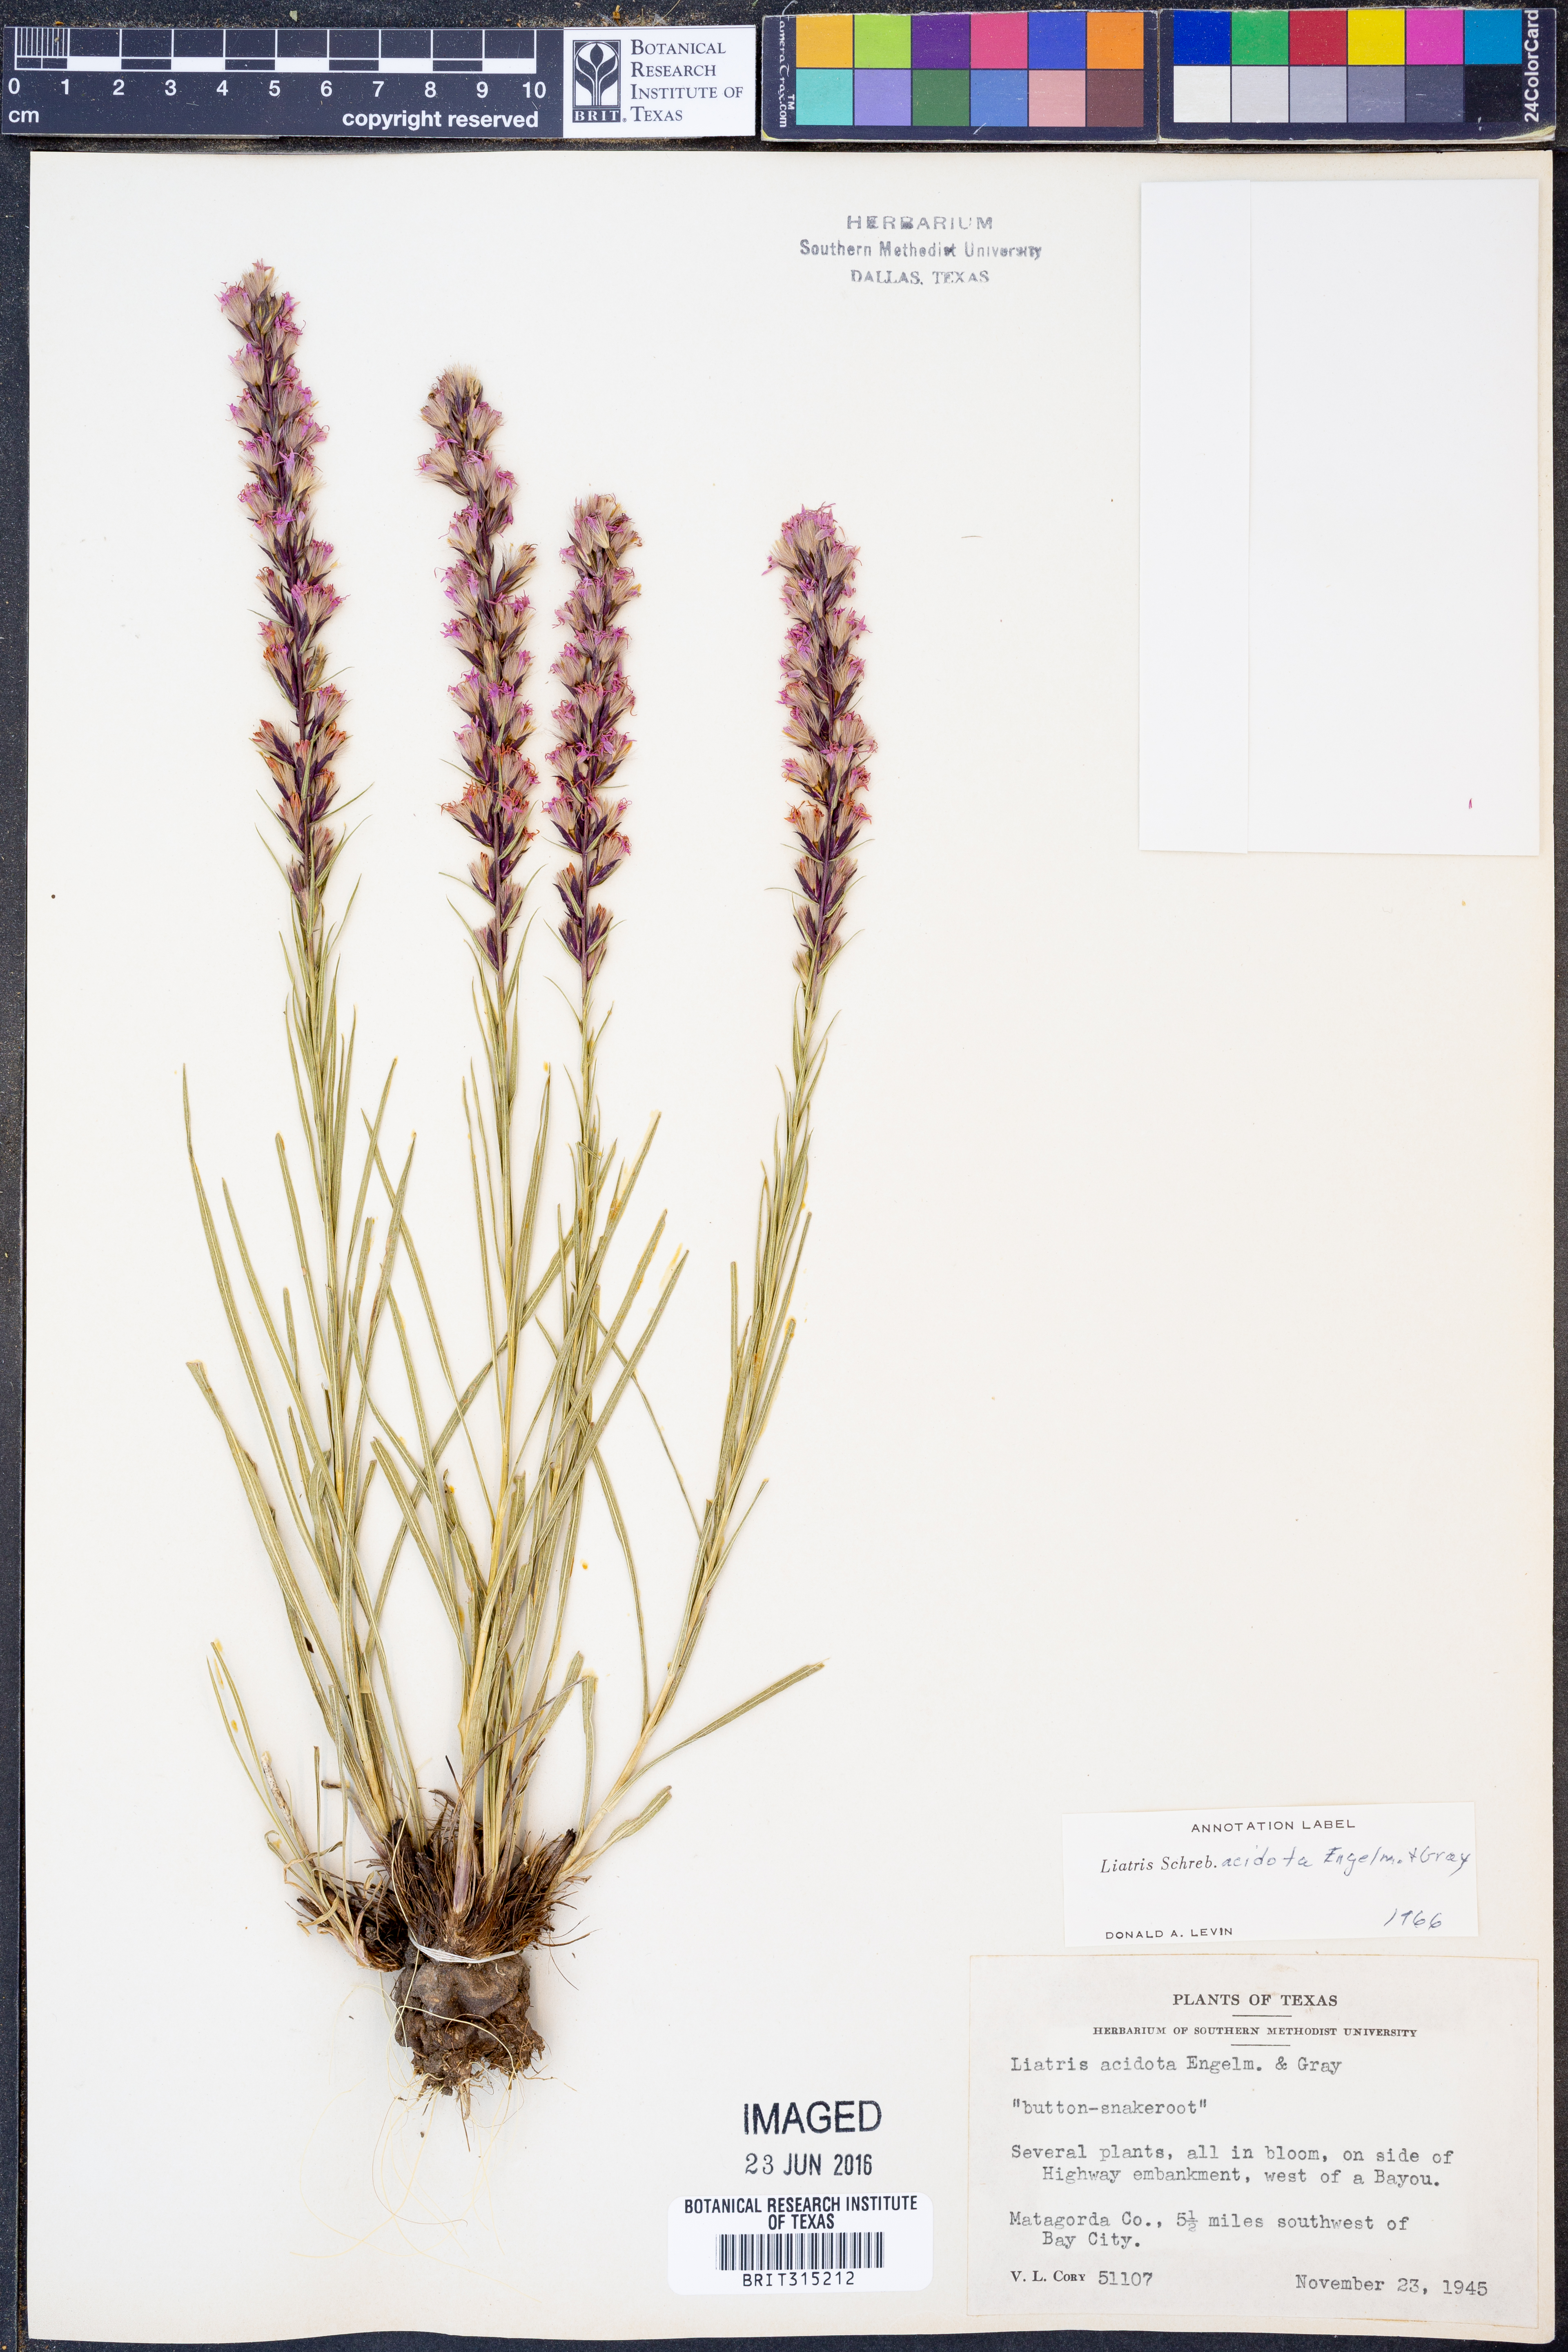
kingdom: Plantae
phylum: Tracheophyta
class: Magnoliopsida
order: Asterales
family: Asteraceae
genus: Liatris
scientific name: Liatris acidota
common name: Gulf coast gayfeather
